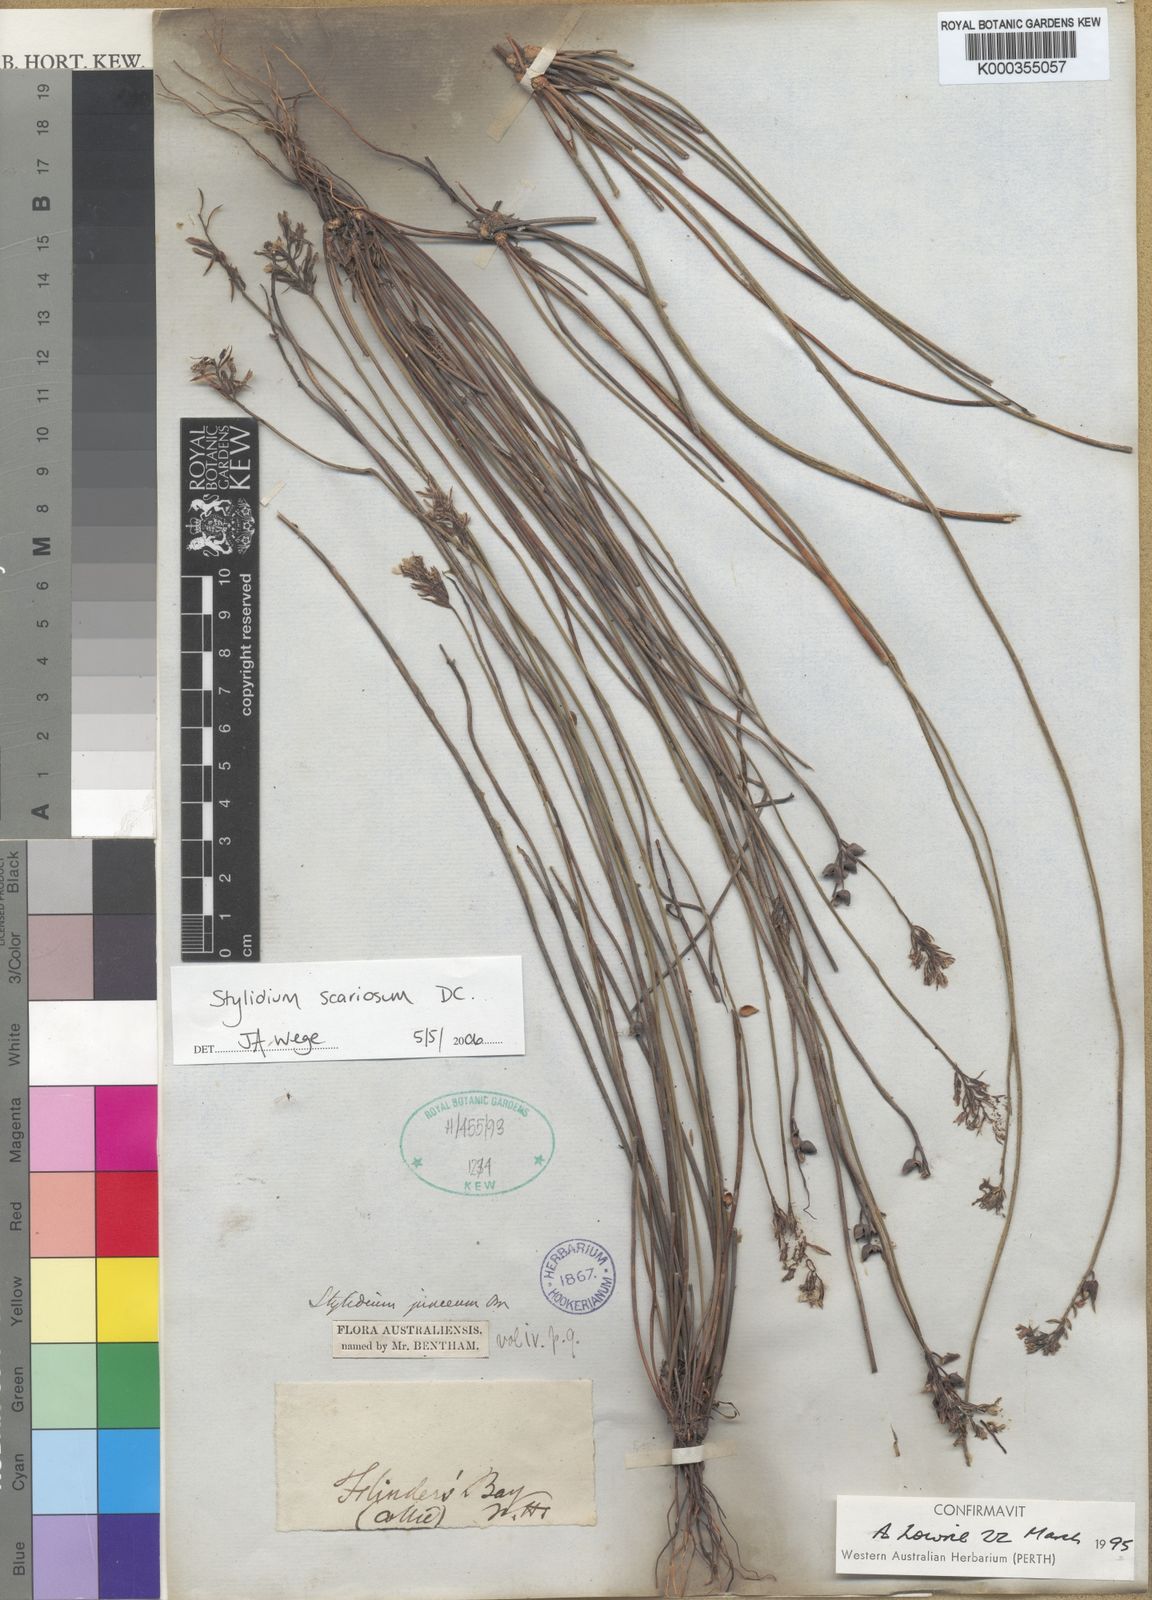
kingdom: Plantae
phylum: Tracheophyta
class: Magnoliopsida
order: Asterales
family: Stylidiaceae
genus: Stylidium
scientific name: Stylidium scariosum
